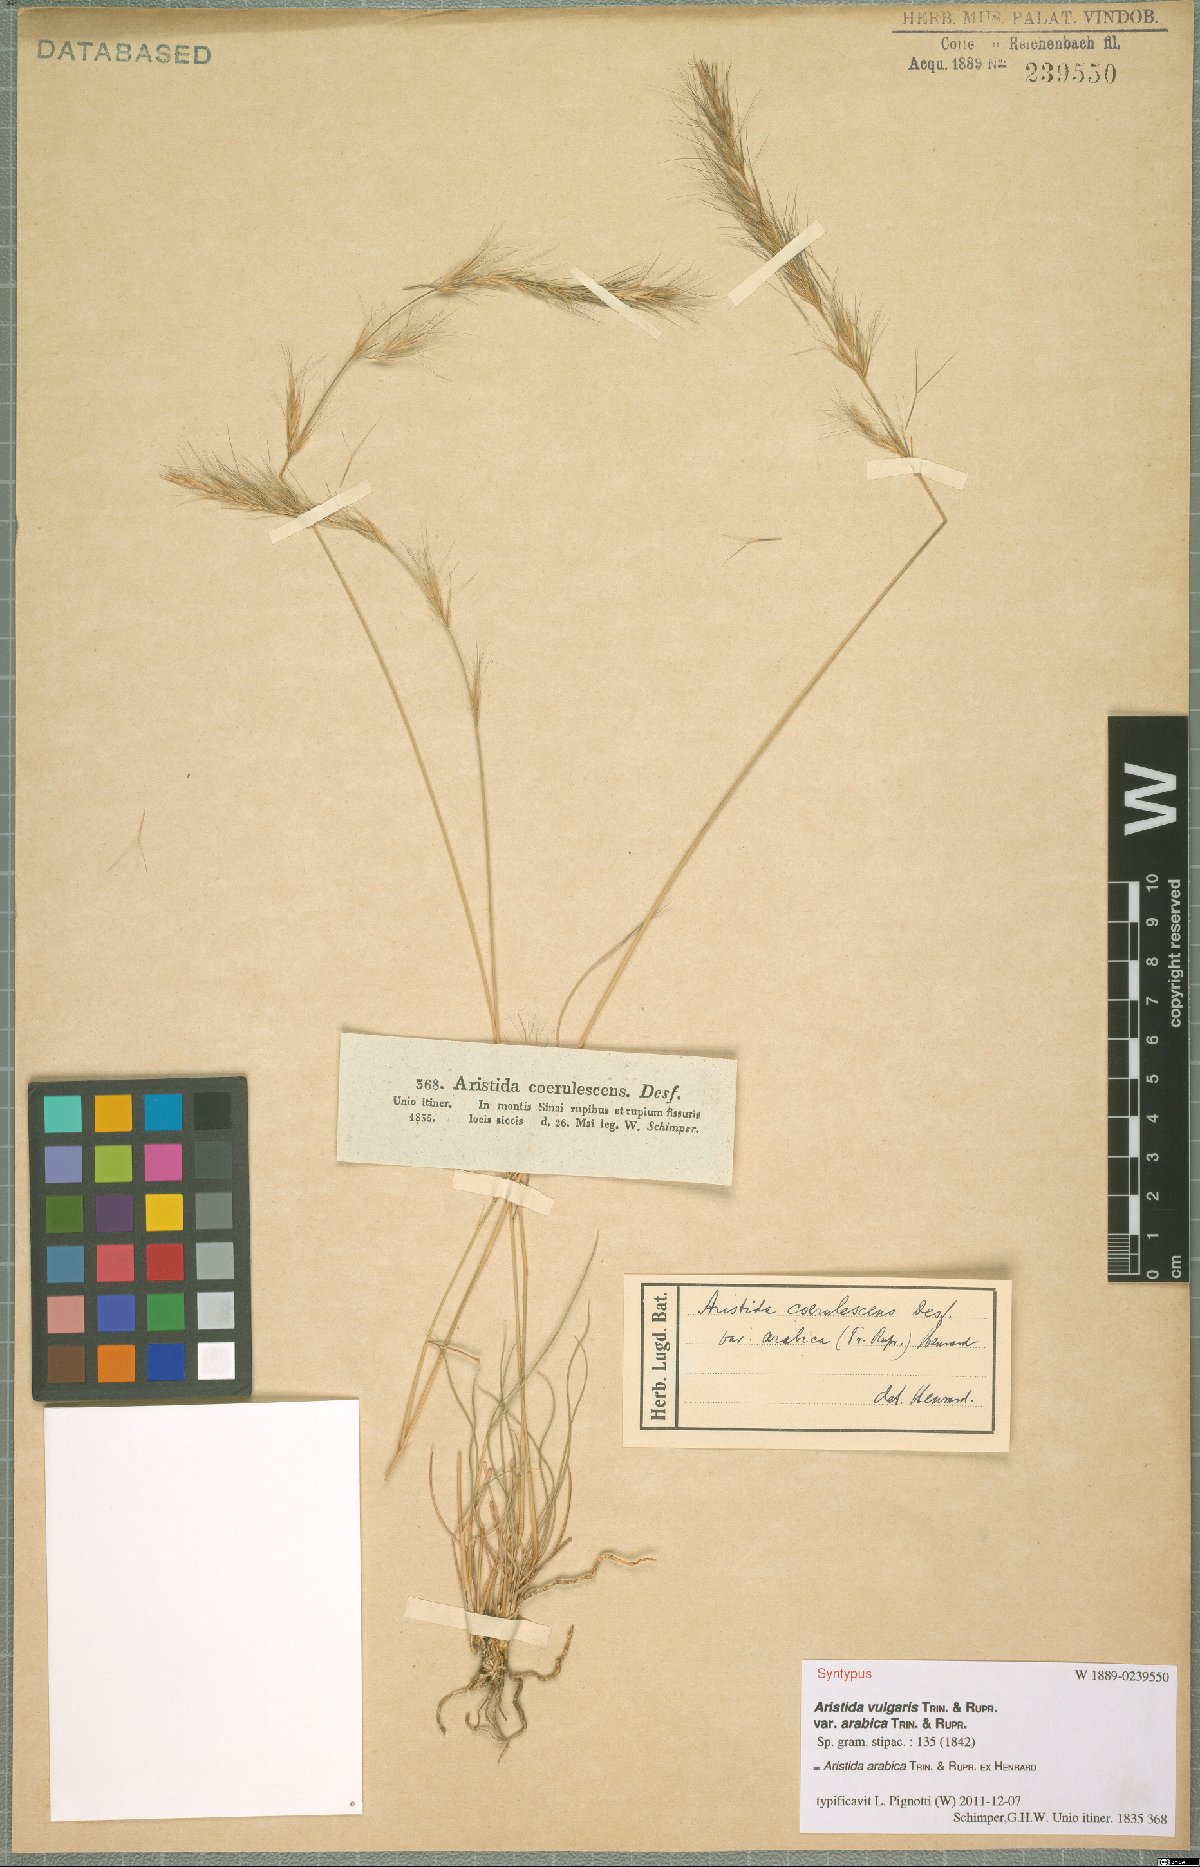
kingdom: Plantae
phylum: Tracheophyta
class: Liliopsida
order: Poales
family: Poaceae
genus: Aristida
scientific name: Aristida arabica
